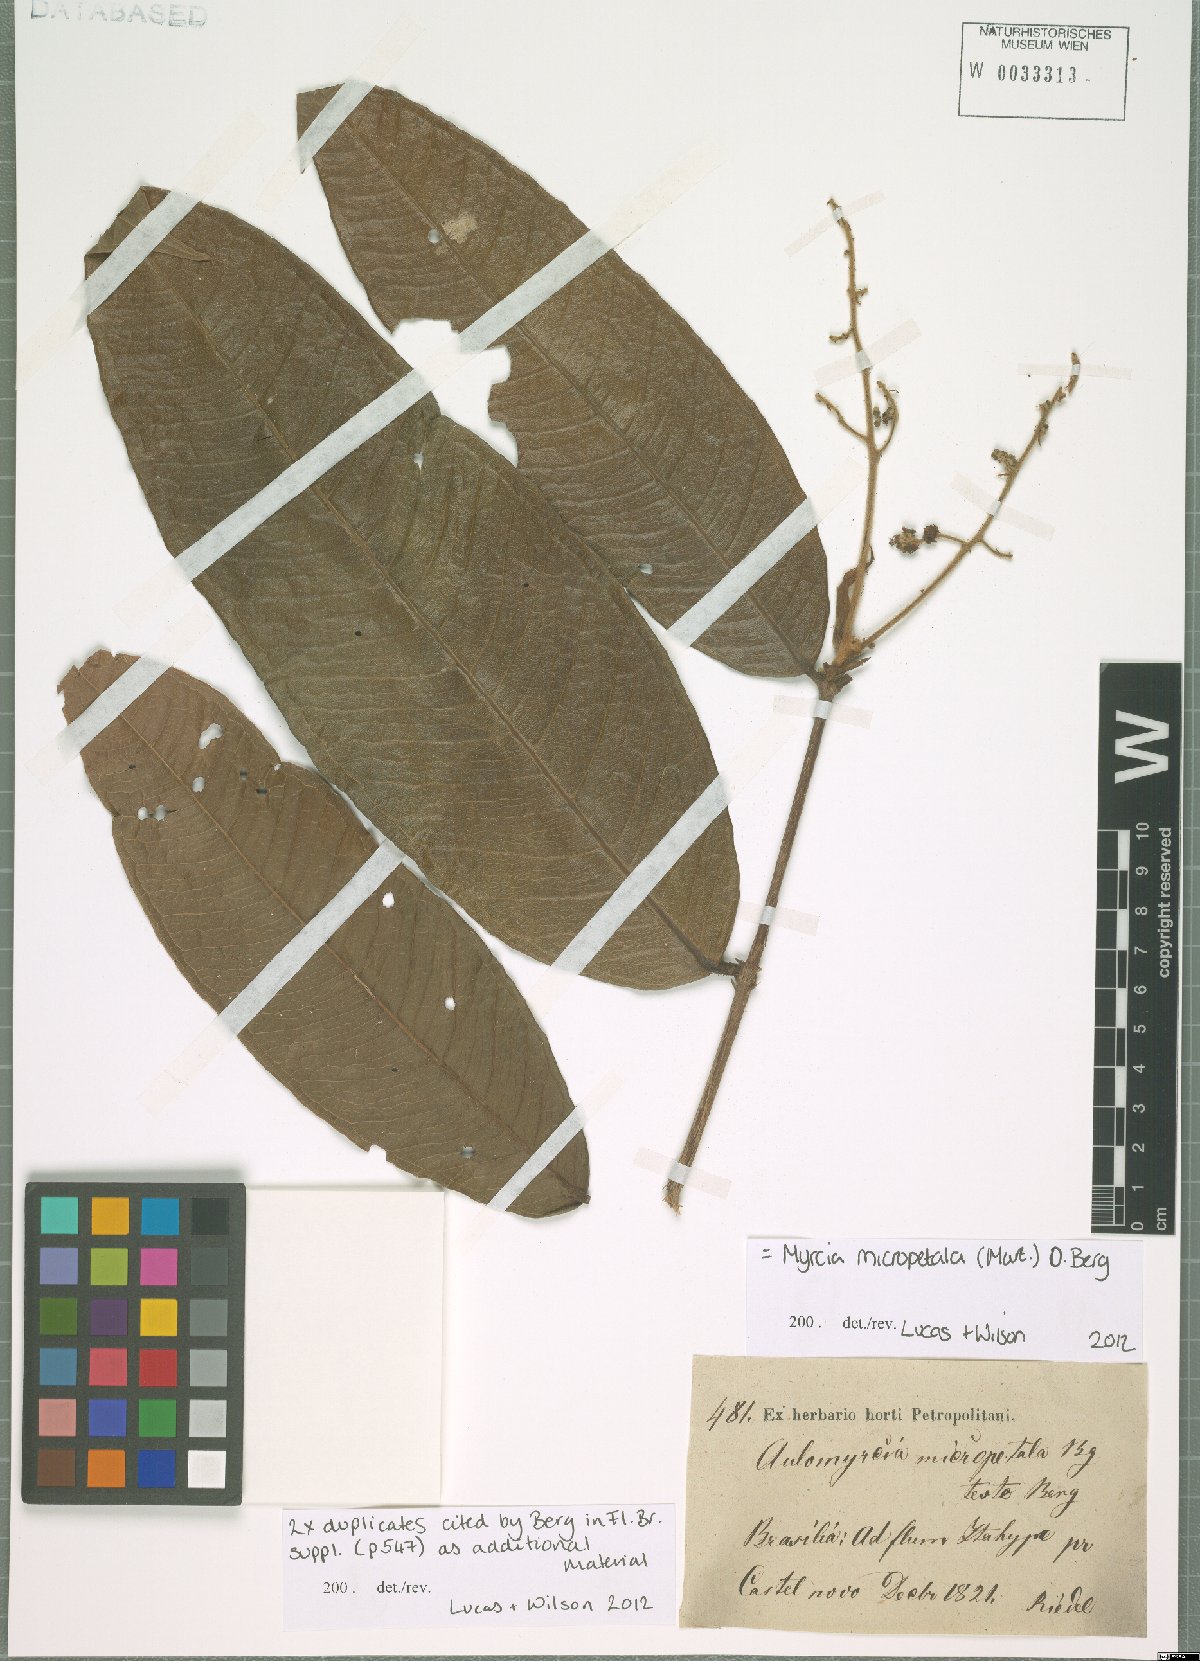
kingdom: Plantae
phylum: Tracheophyta
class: Magnoliopsida
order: Myrtales
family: Myrtaceae
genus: Myrcia
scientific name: Myrcia micropetala
